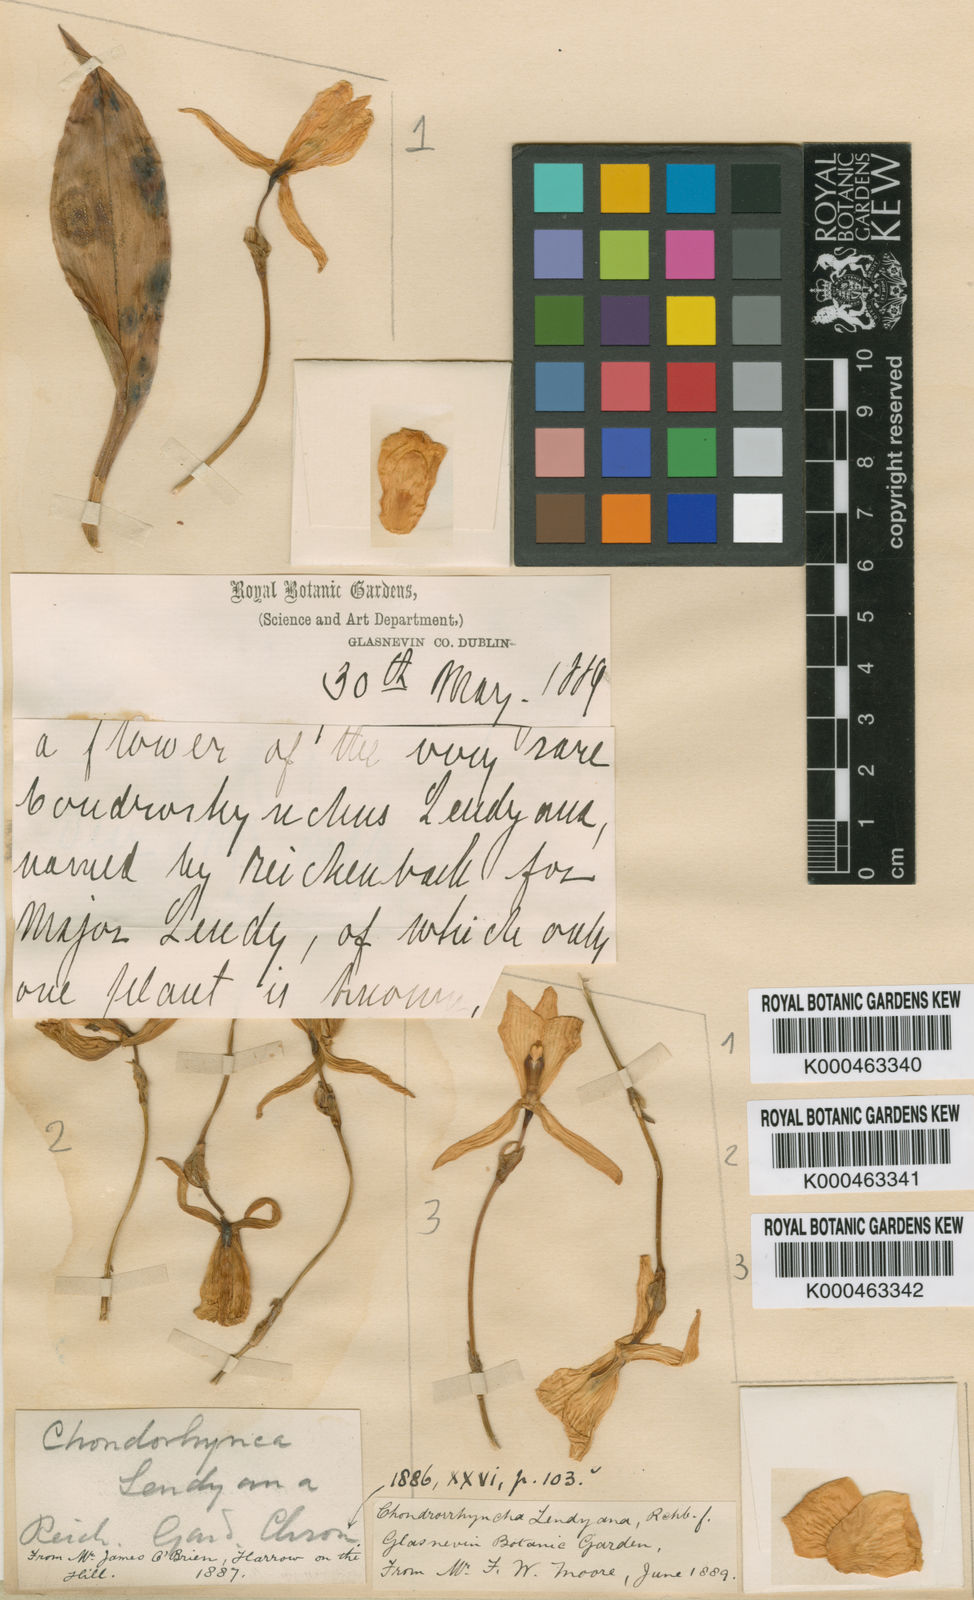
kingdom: Plantae
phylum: Tracheophyta
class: Liliopsida
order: Asparagales
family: Orchidaceae
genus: Stenotyla
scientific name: Stenotyla lendyana
